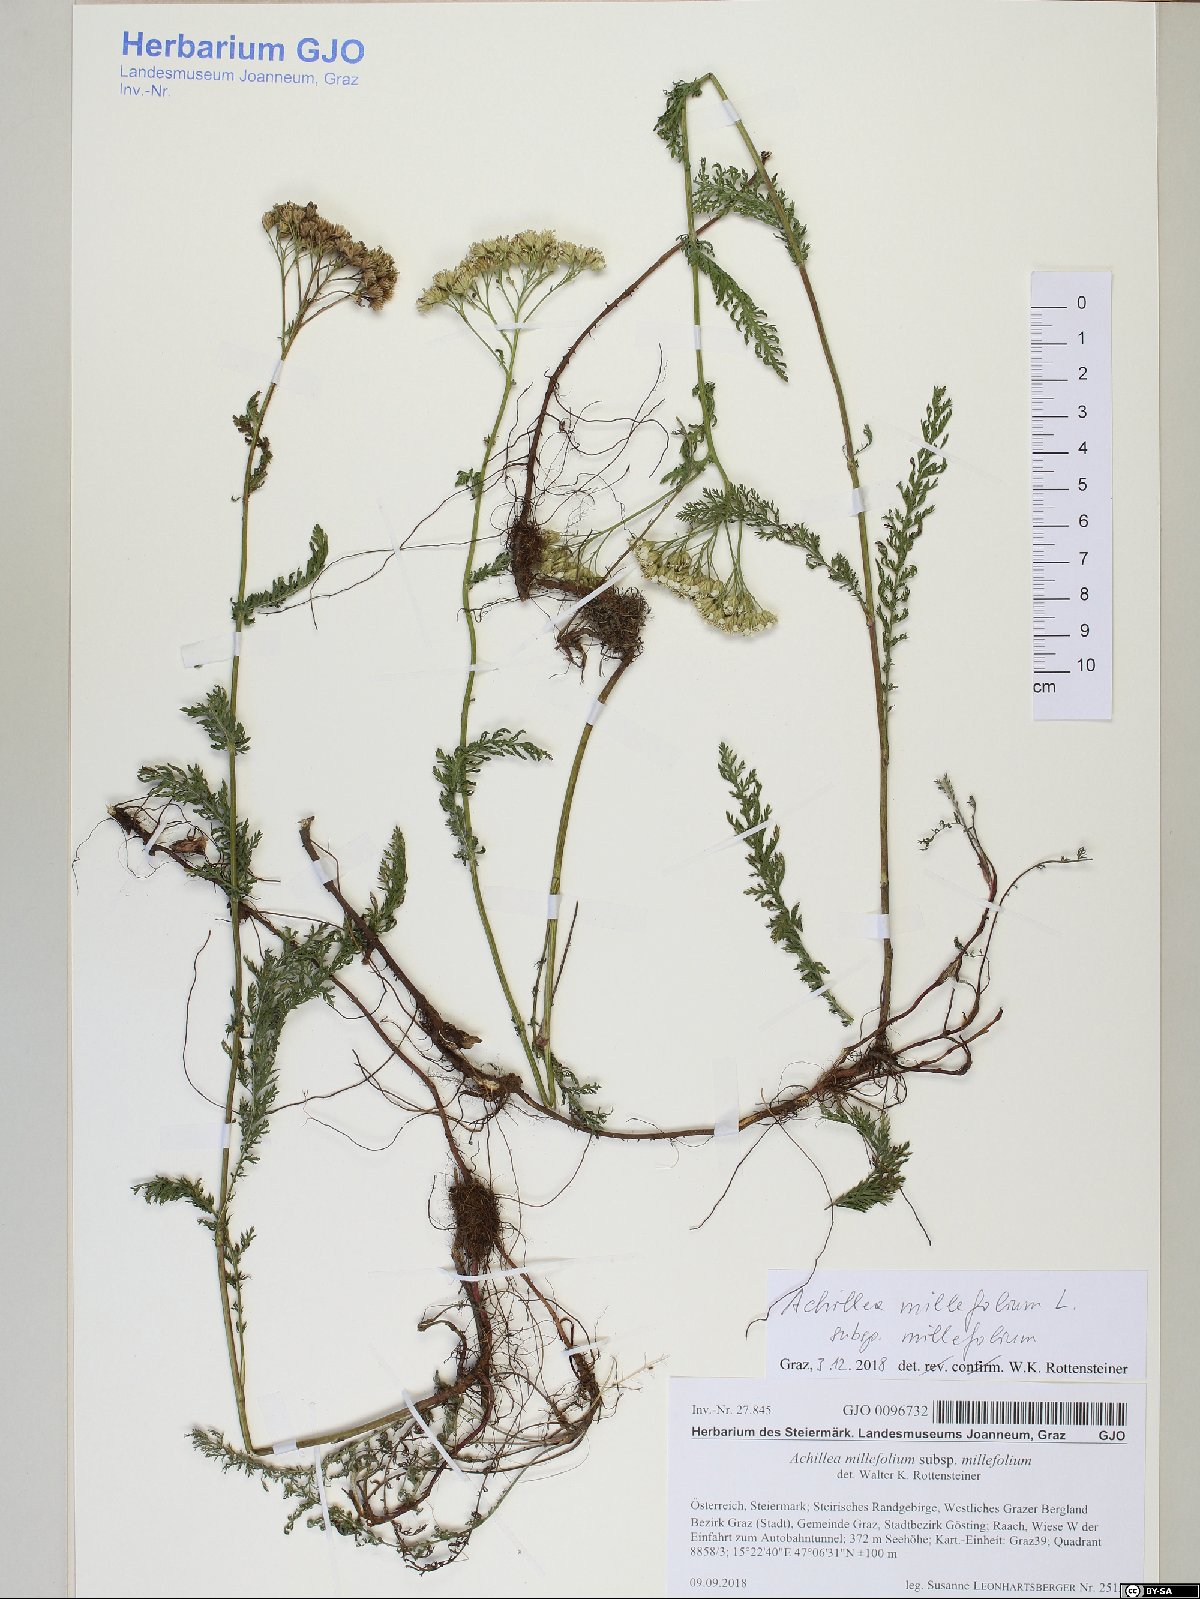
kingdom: Plantae
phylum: Tracheophyta
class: Magnoliopsida
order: Asterales
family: Asteraceae
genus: Achillea
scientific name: Achillea millefolium
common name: Yarrow
